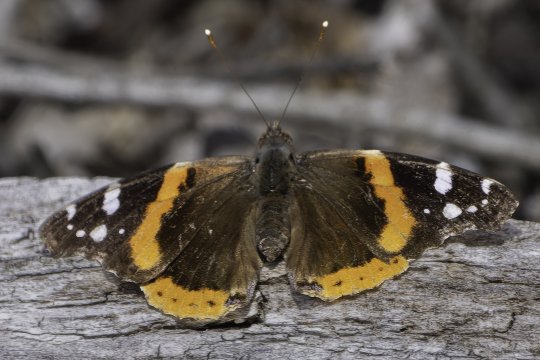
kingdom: Animalia
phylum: Arthropoda
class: Insecta
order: Lepidoptera
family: Nymphalidae
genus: Vanessa
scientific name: Vanessa atalanta
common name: Red Admiral
